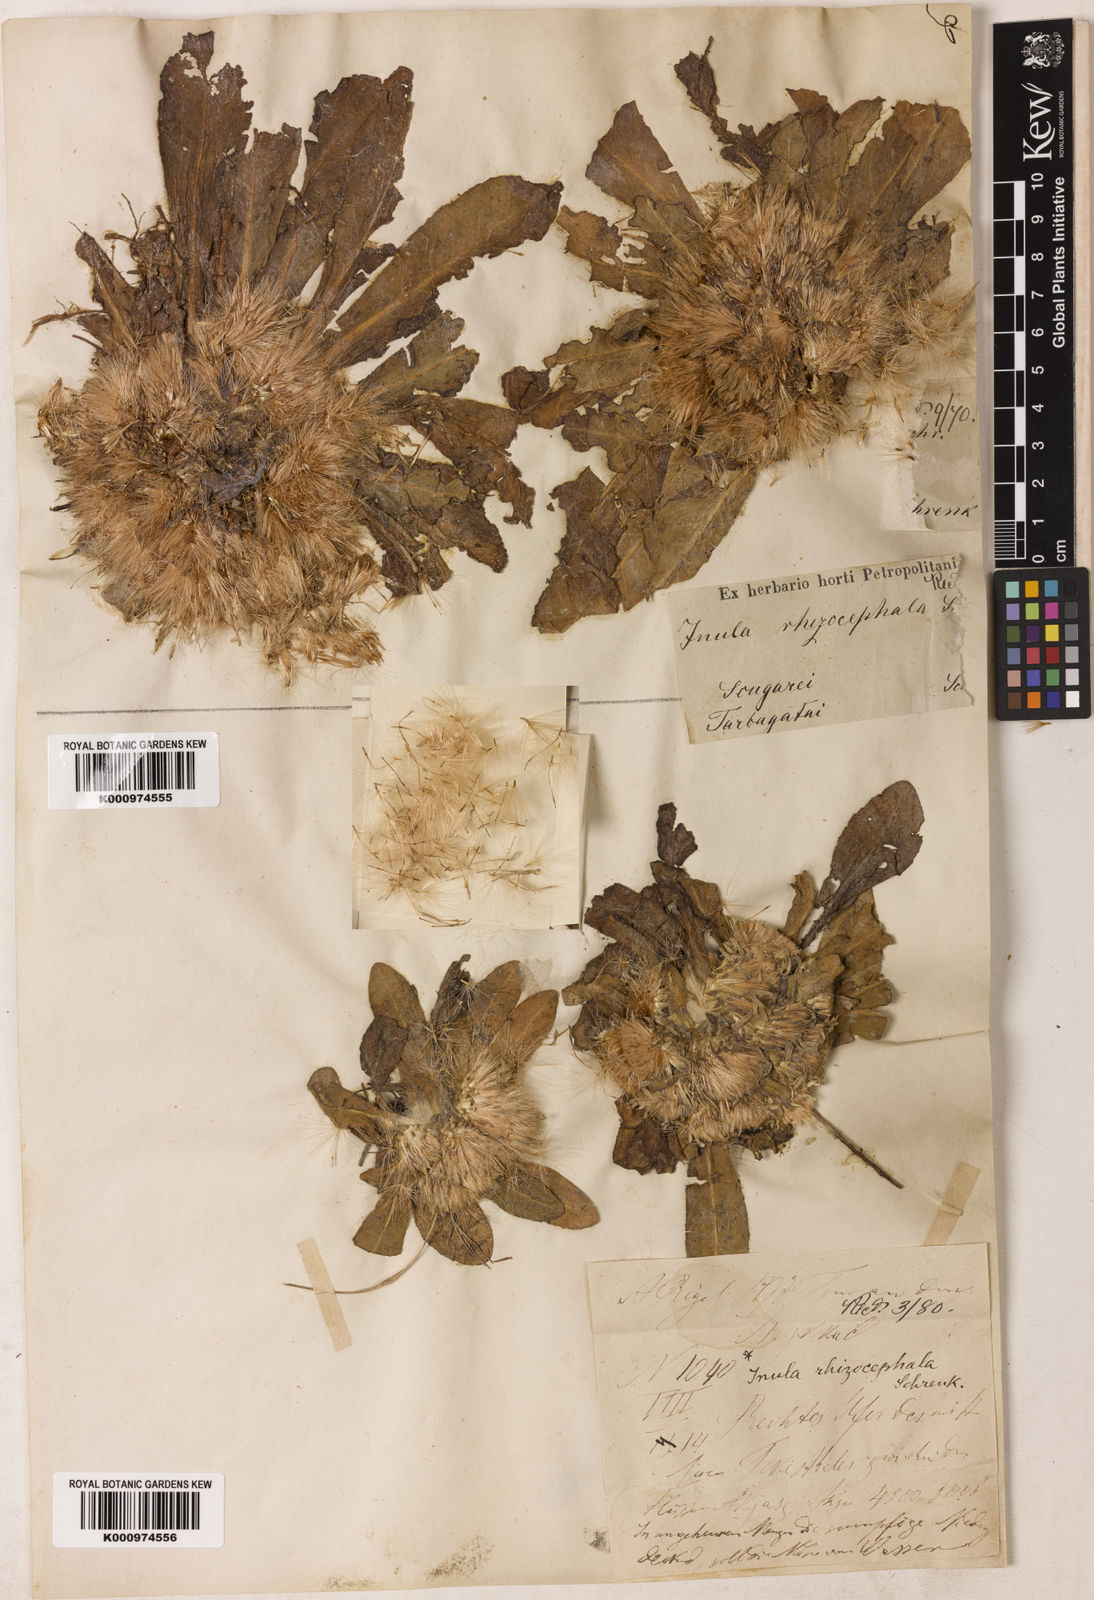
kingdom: Plantae
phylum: Tracheophyta
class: Magnoliopsida
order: Asterales
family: Asteraceae
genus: Inula
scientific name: Inula rhizocephala
